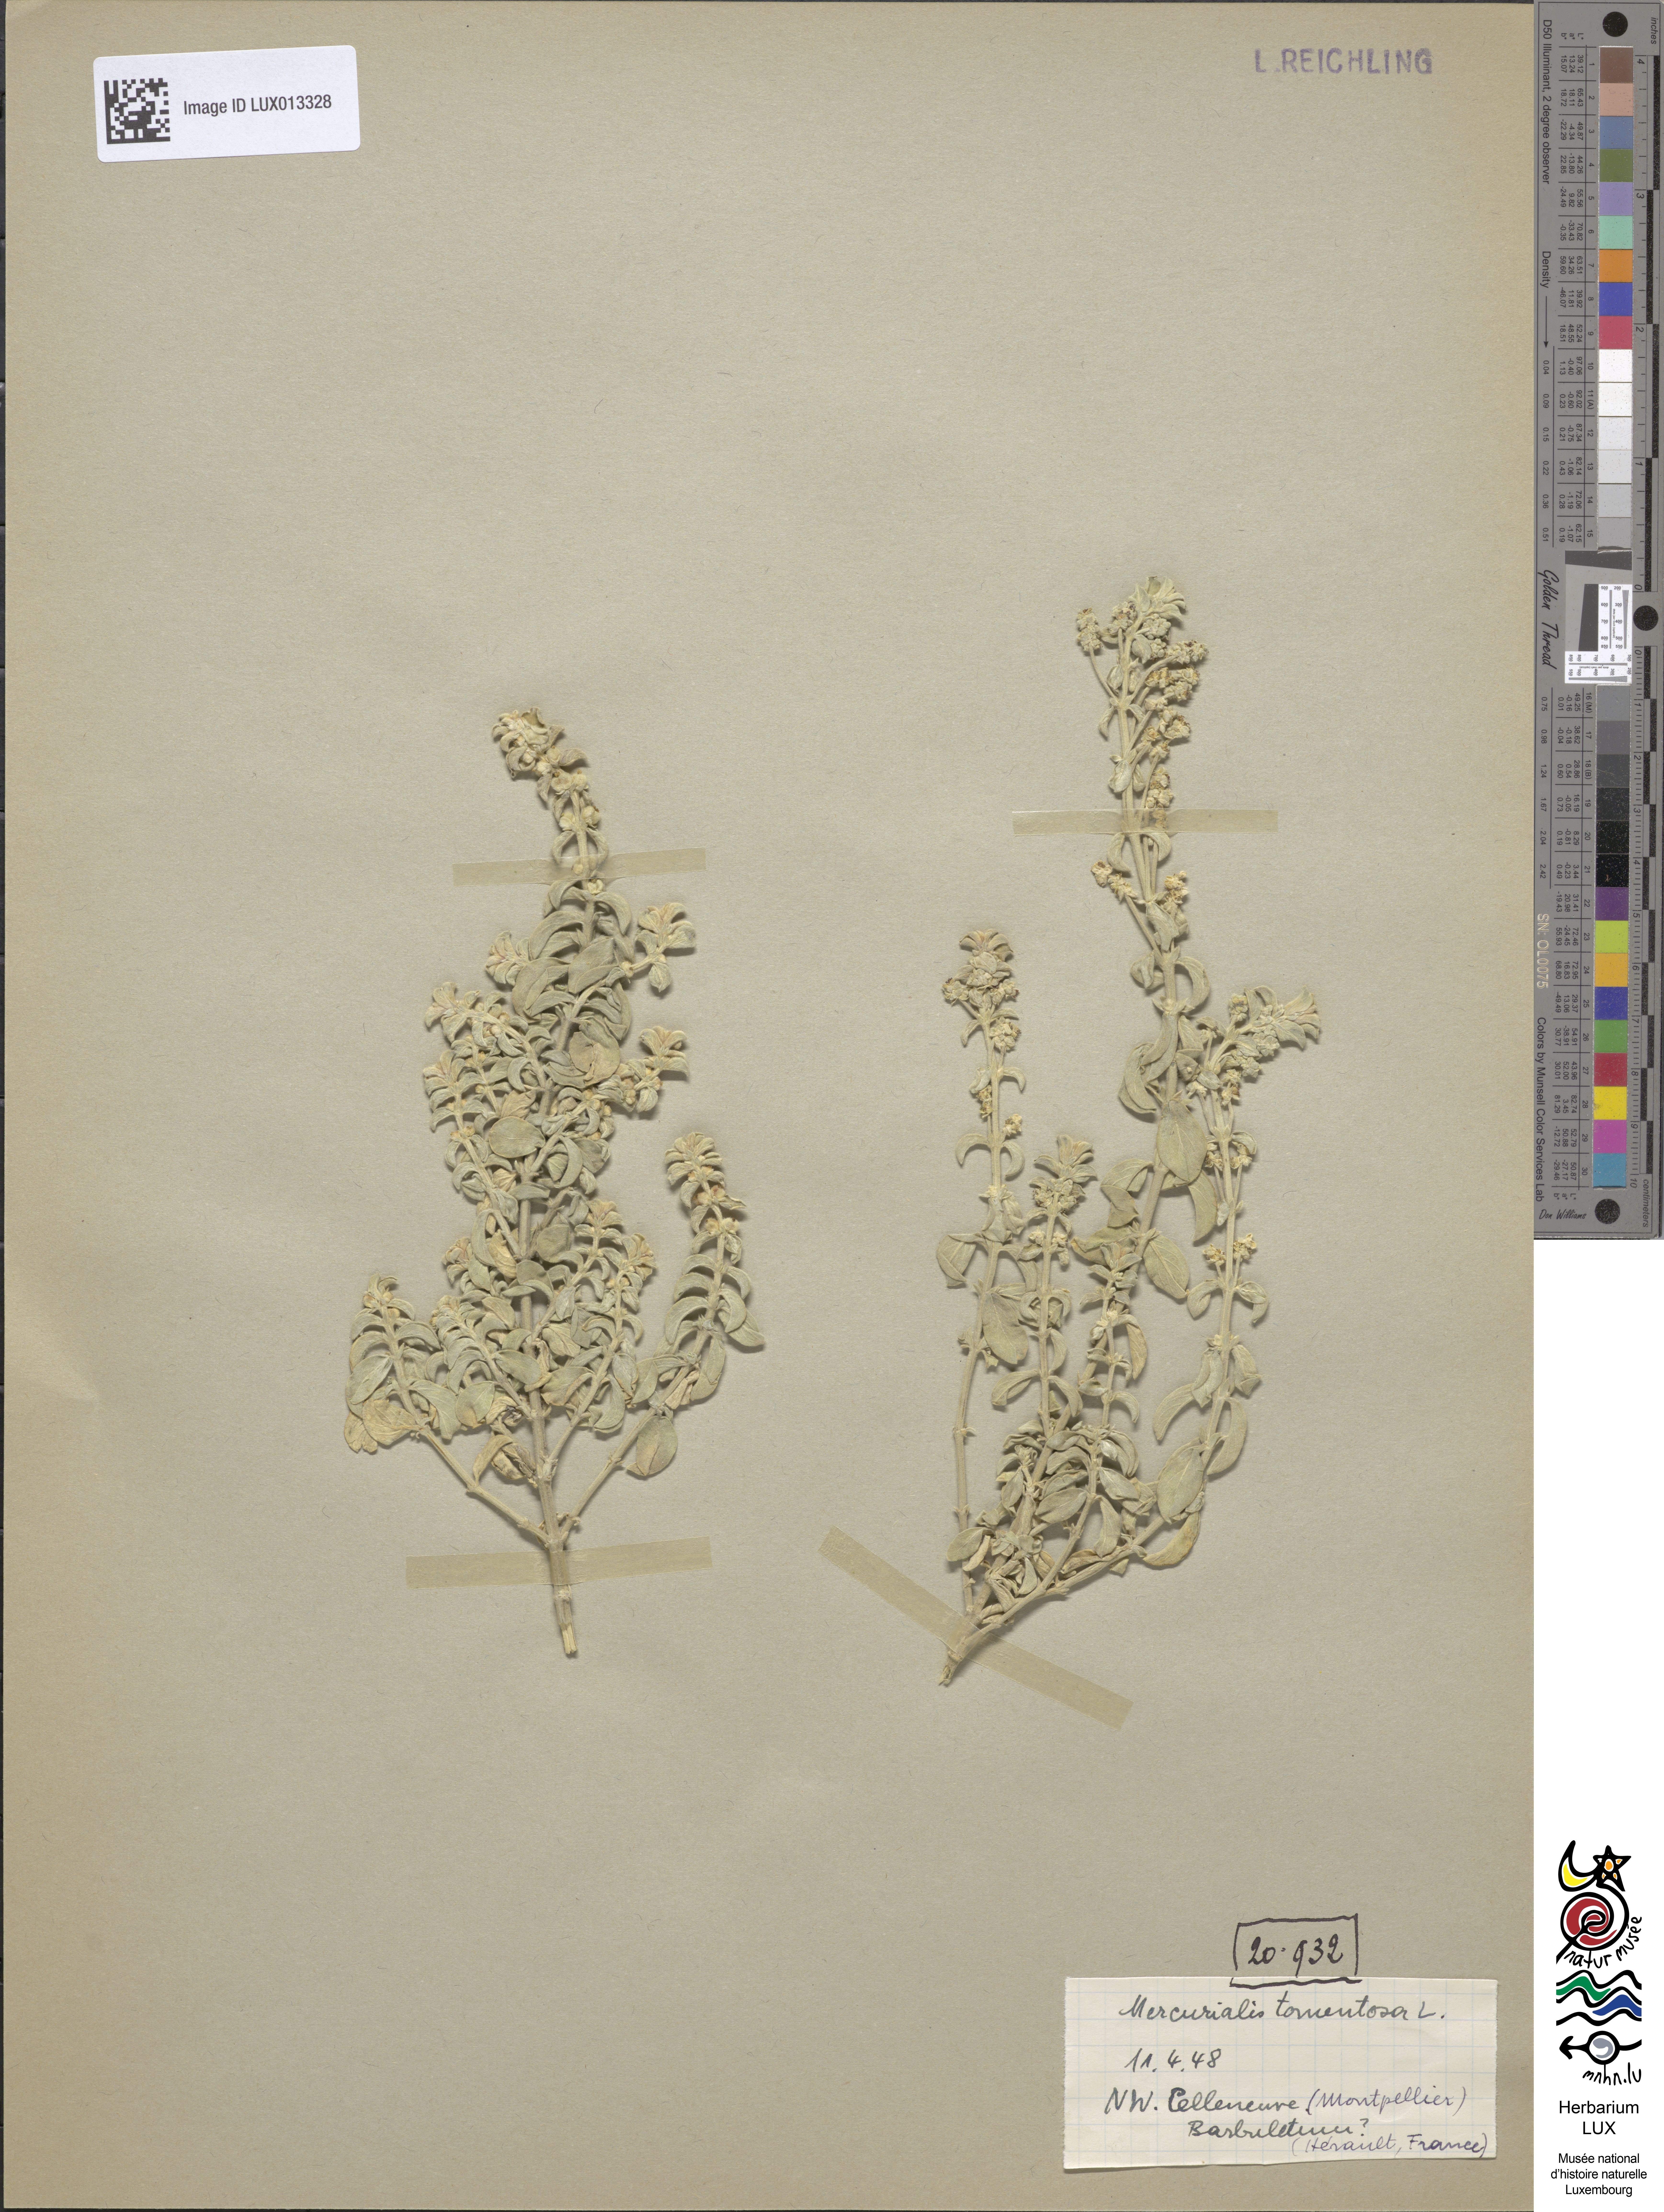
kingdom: Plantae
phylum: Tracheophyta
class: Magnoliopsida
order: Malpighiales
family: Euphorbiaceae
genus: Mercurialis
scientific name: Mercurialis tomentosa
